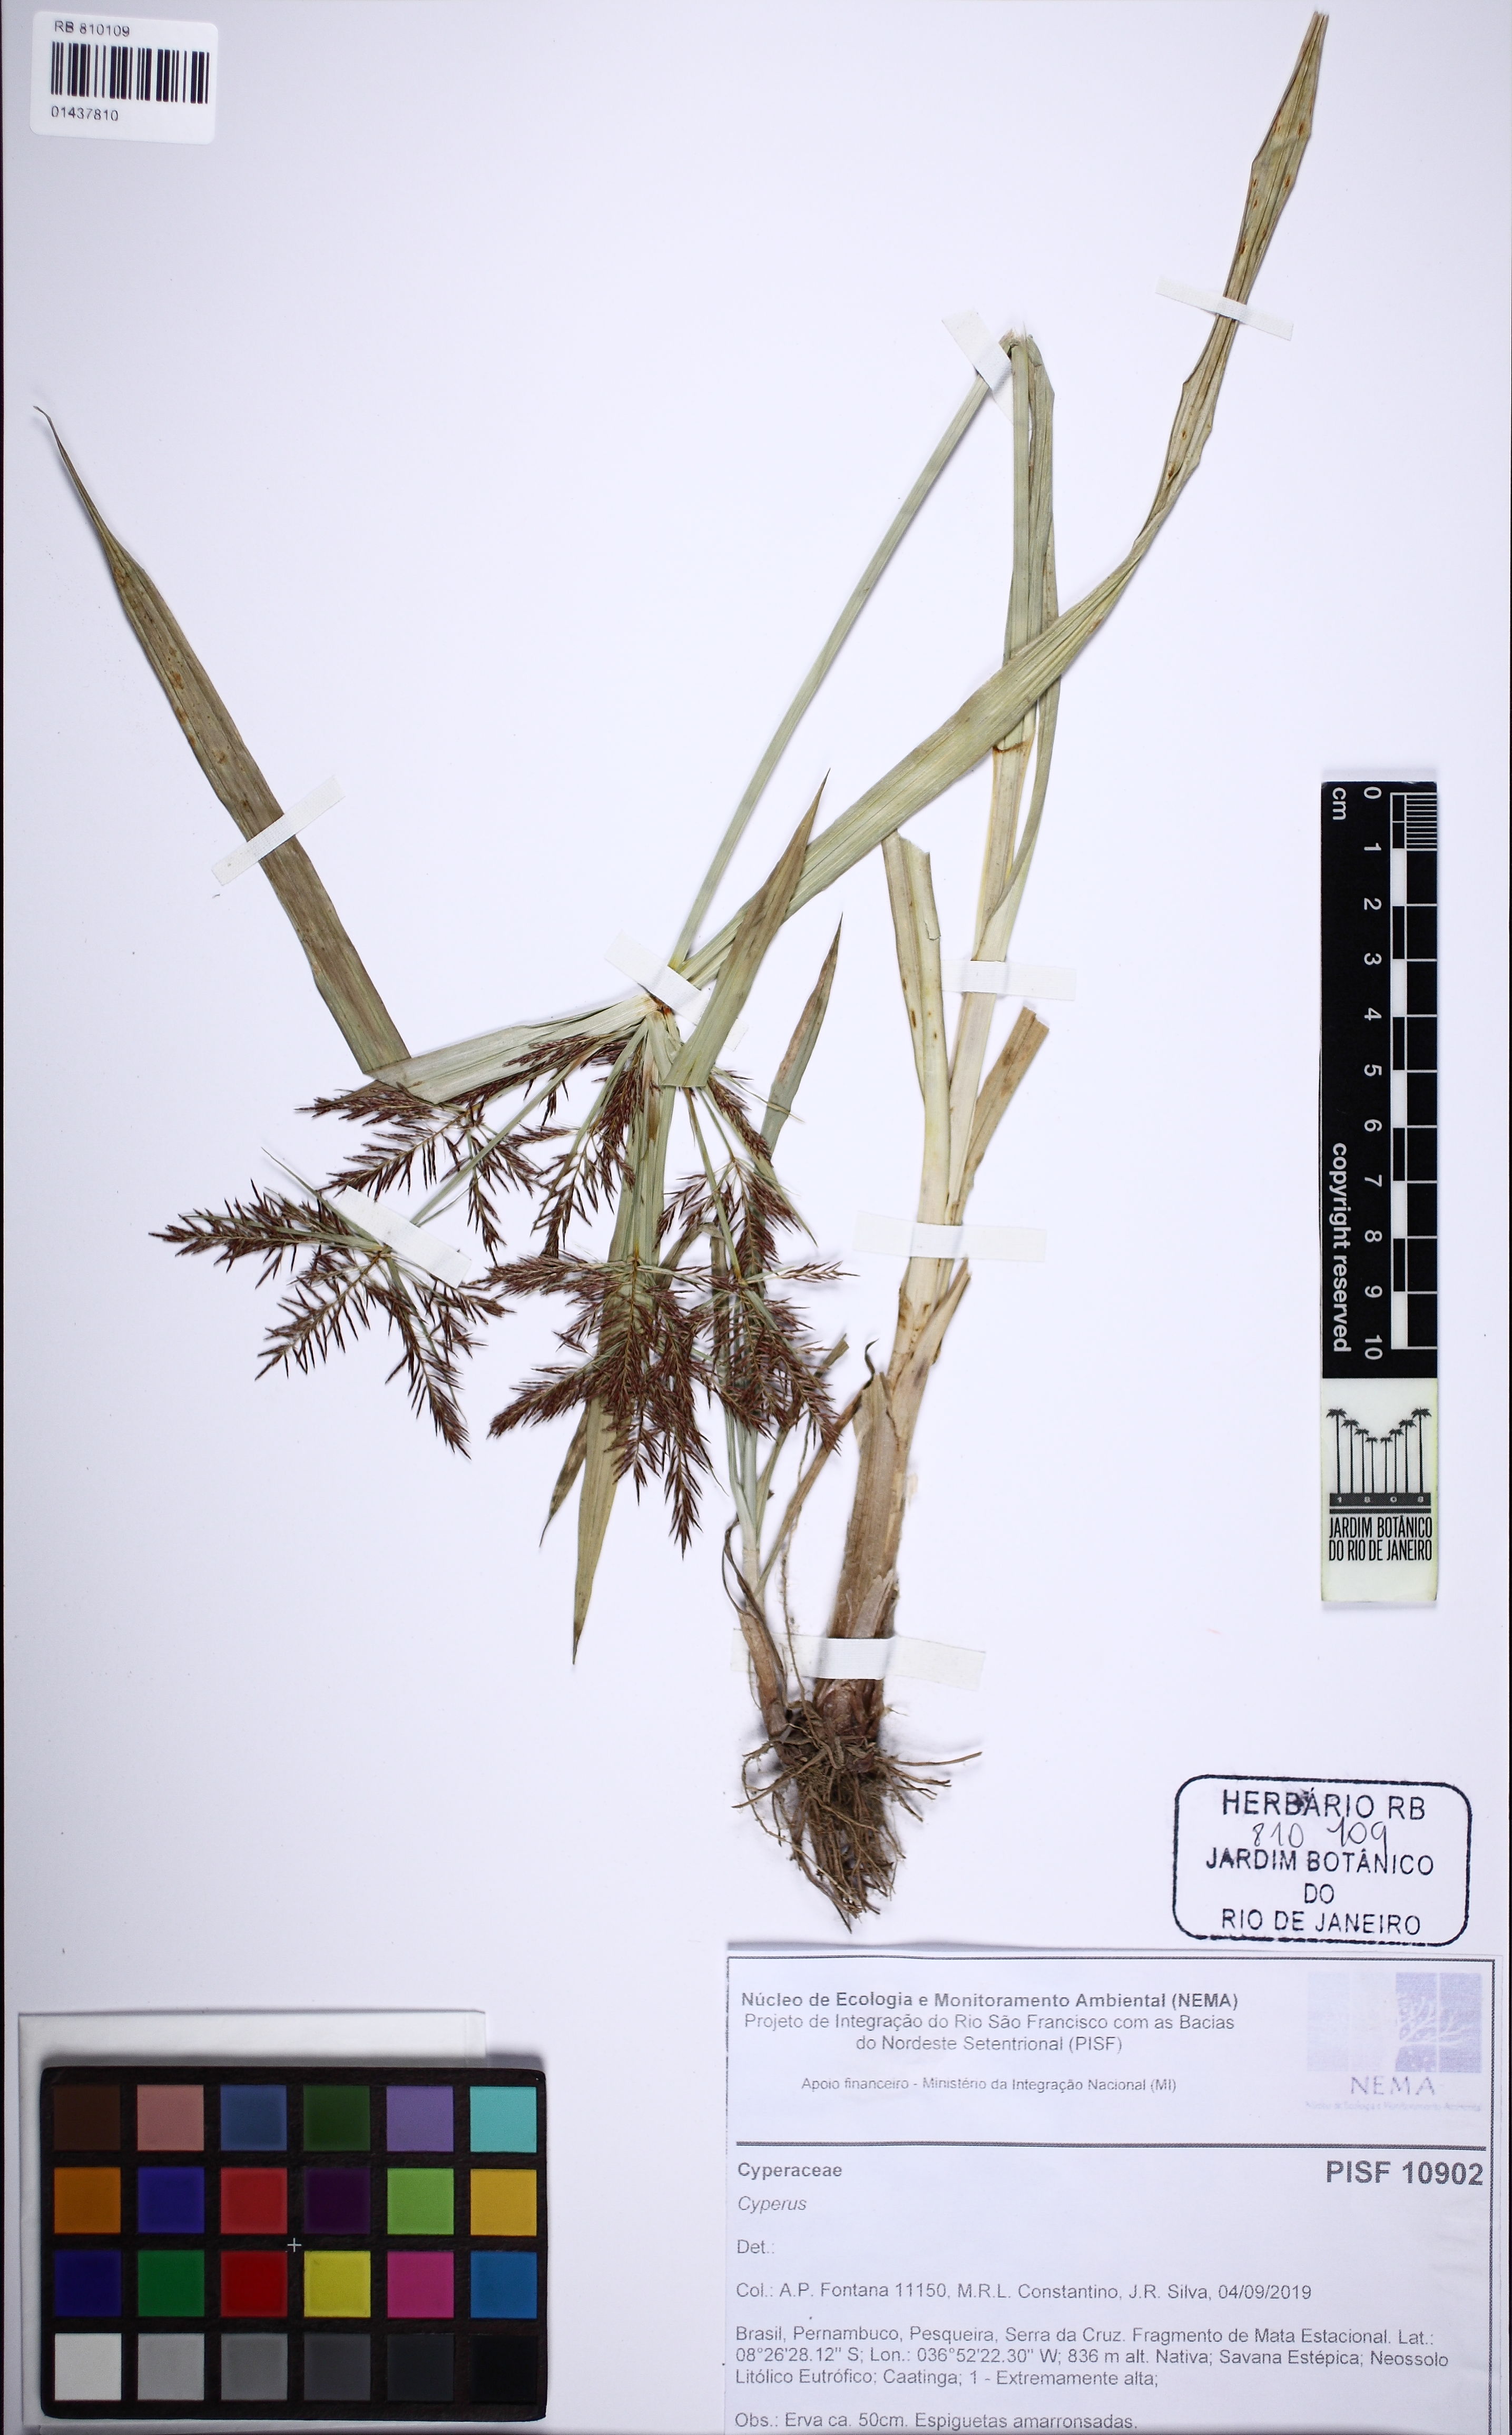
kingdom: Plantae
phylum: Tracheophyta
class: Liliopsida
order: Poales
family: Cyperaceae
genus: Cyperus
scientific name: Cyperus distans
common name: Slender cyperus
